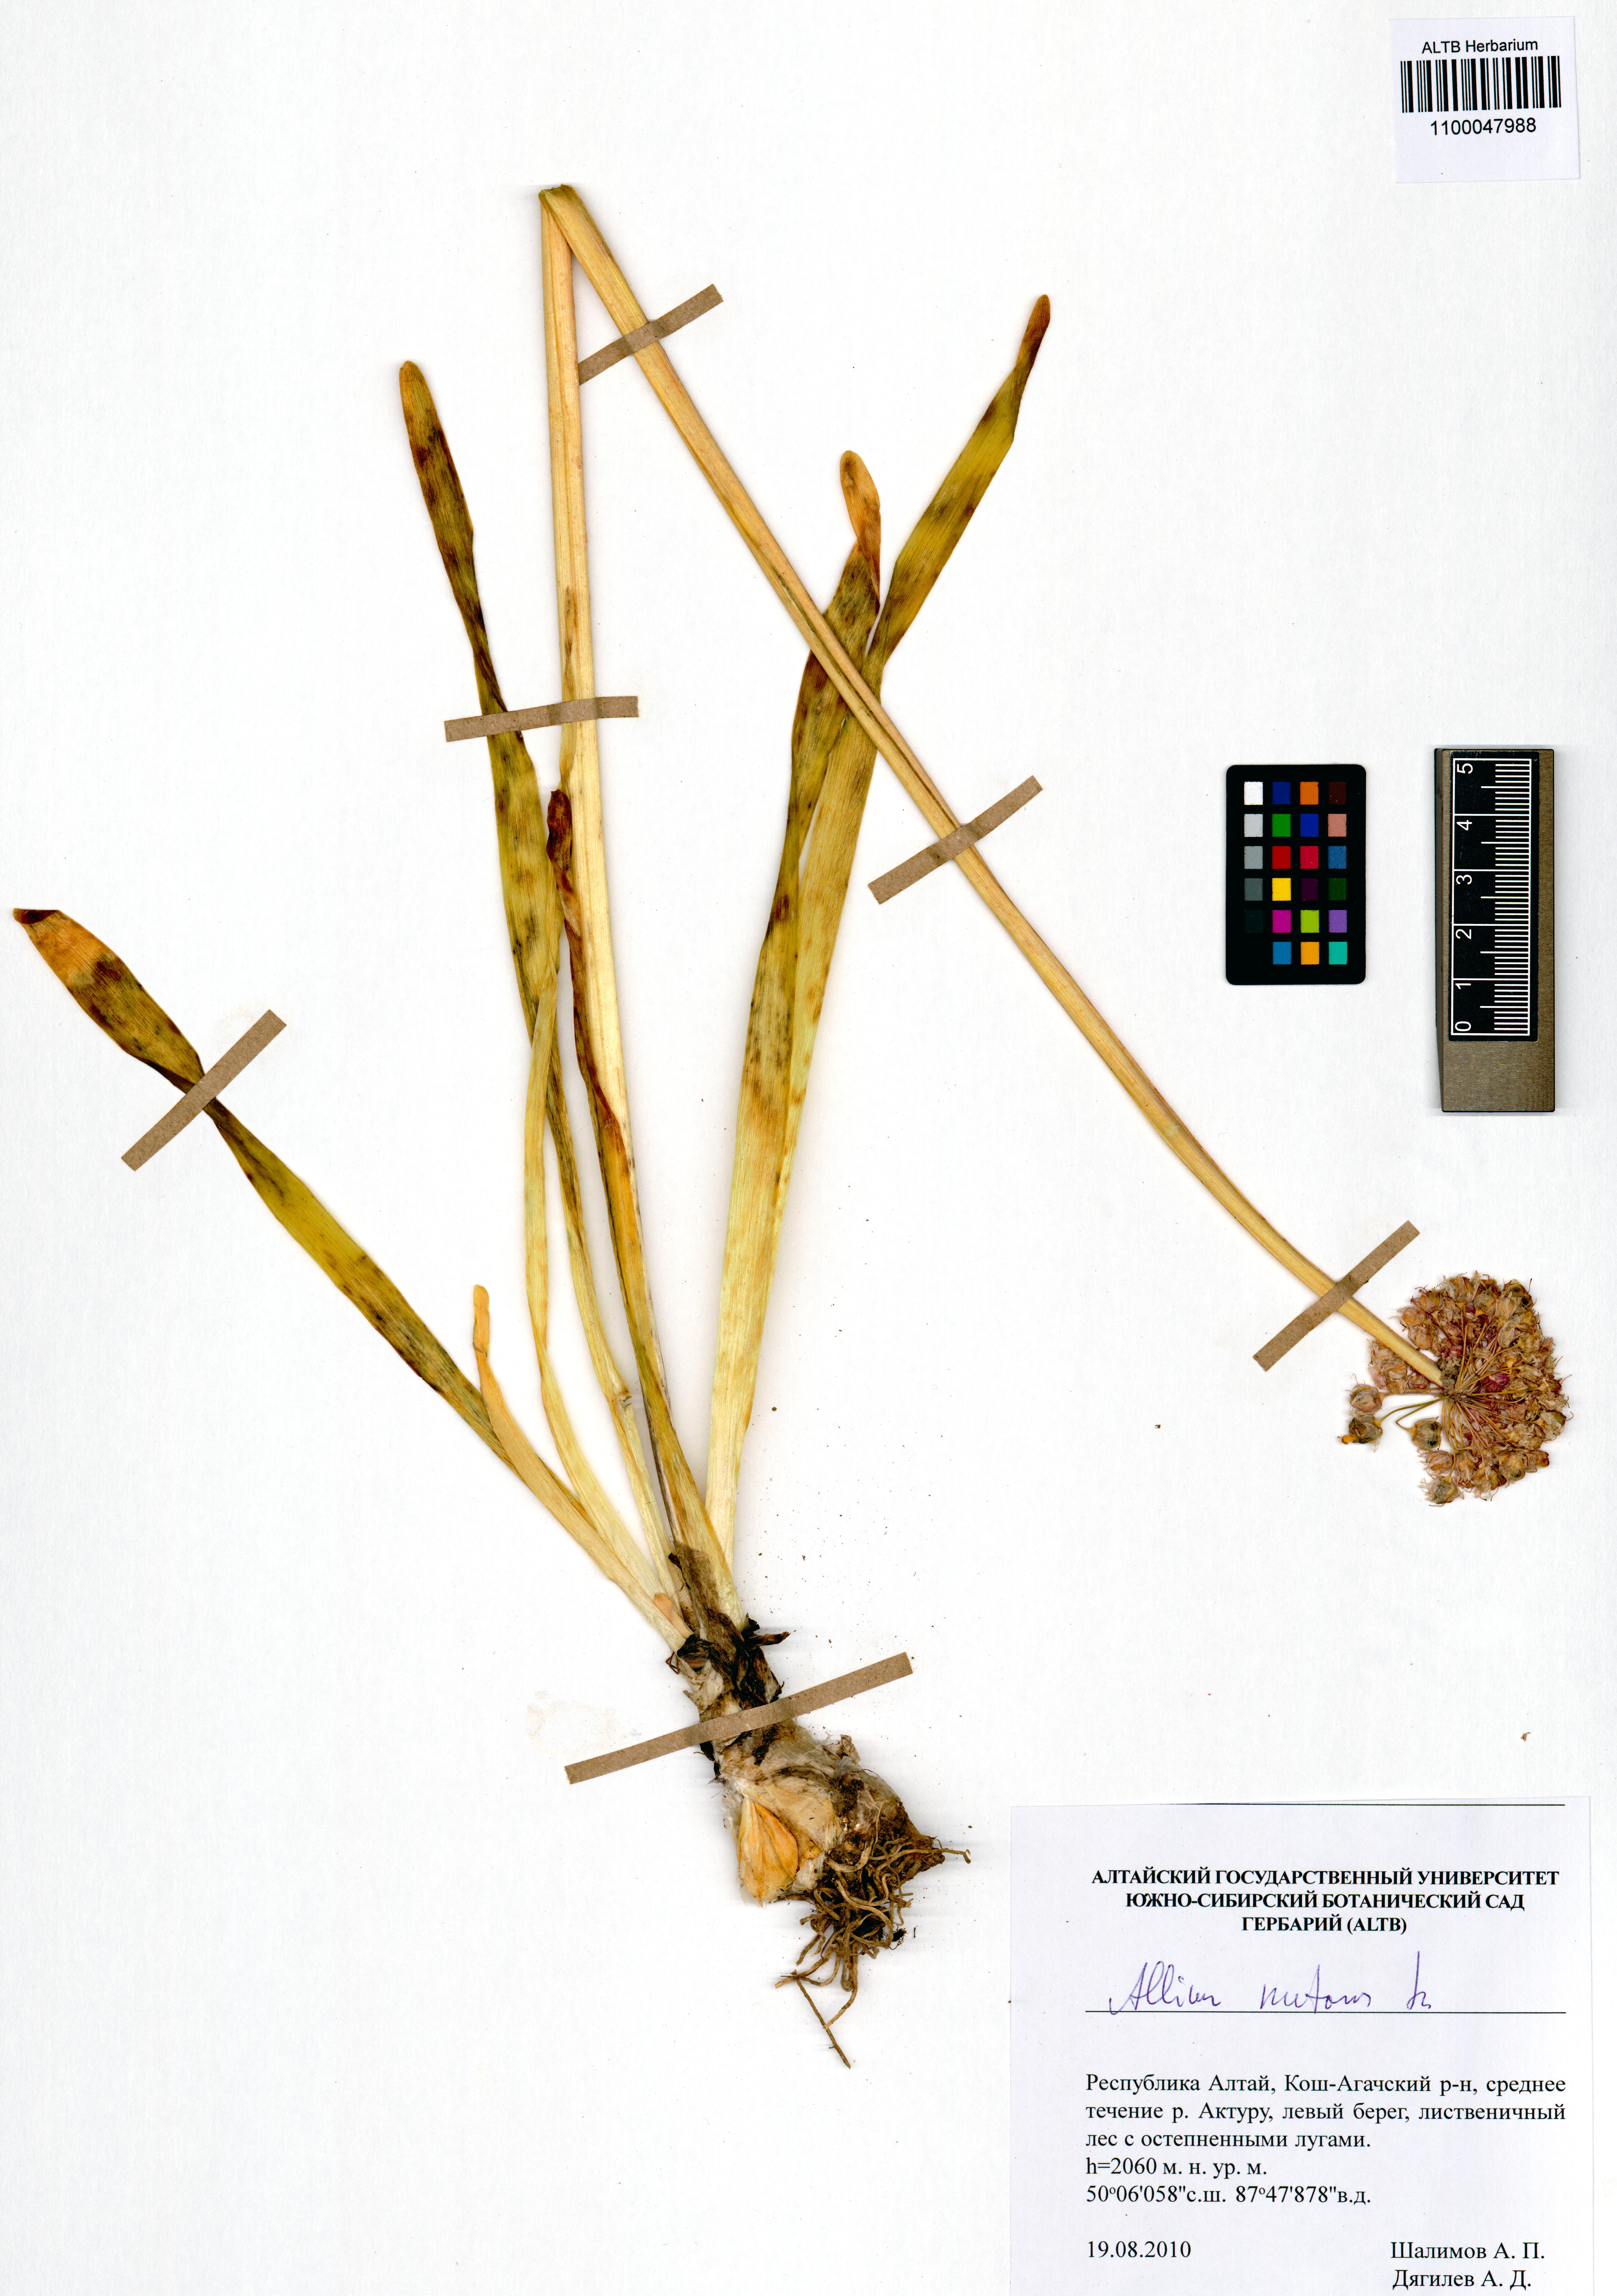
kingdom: Plantae
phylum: Tracheophyta
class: Liliopsida
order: Asparagales
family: Amaryllidaceae
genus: Allium
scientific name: Allium nutans
